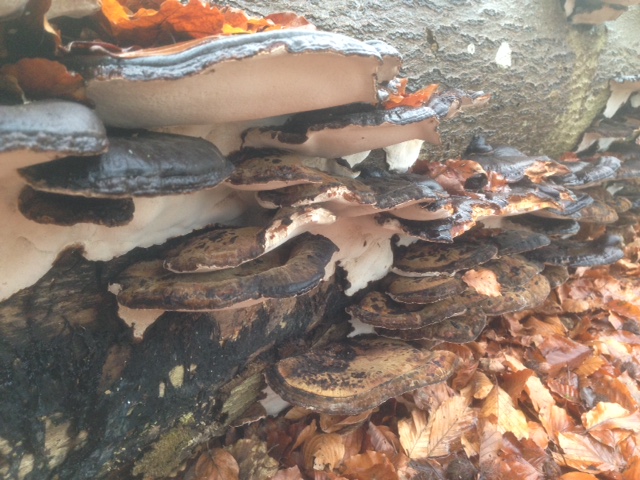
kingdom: Fungi
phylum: Basidiomycota
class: Agaricomycetes
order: Polyporales
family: Ischnodermataceae
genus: Ischnoderma
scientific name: Ischnoderma resinosum
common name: løv-tjæreporesvamp
